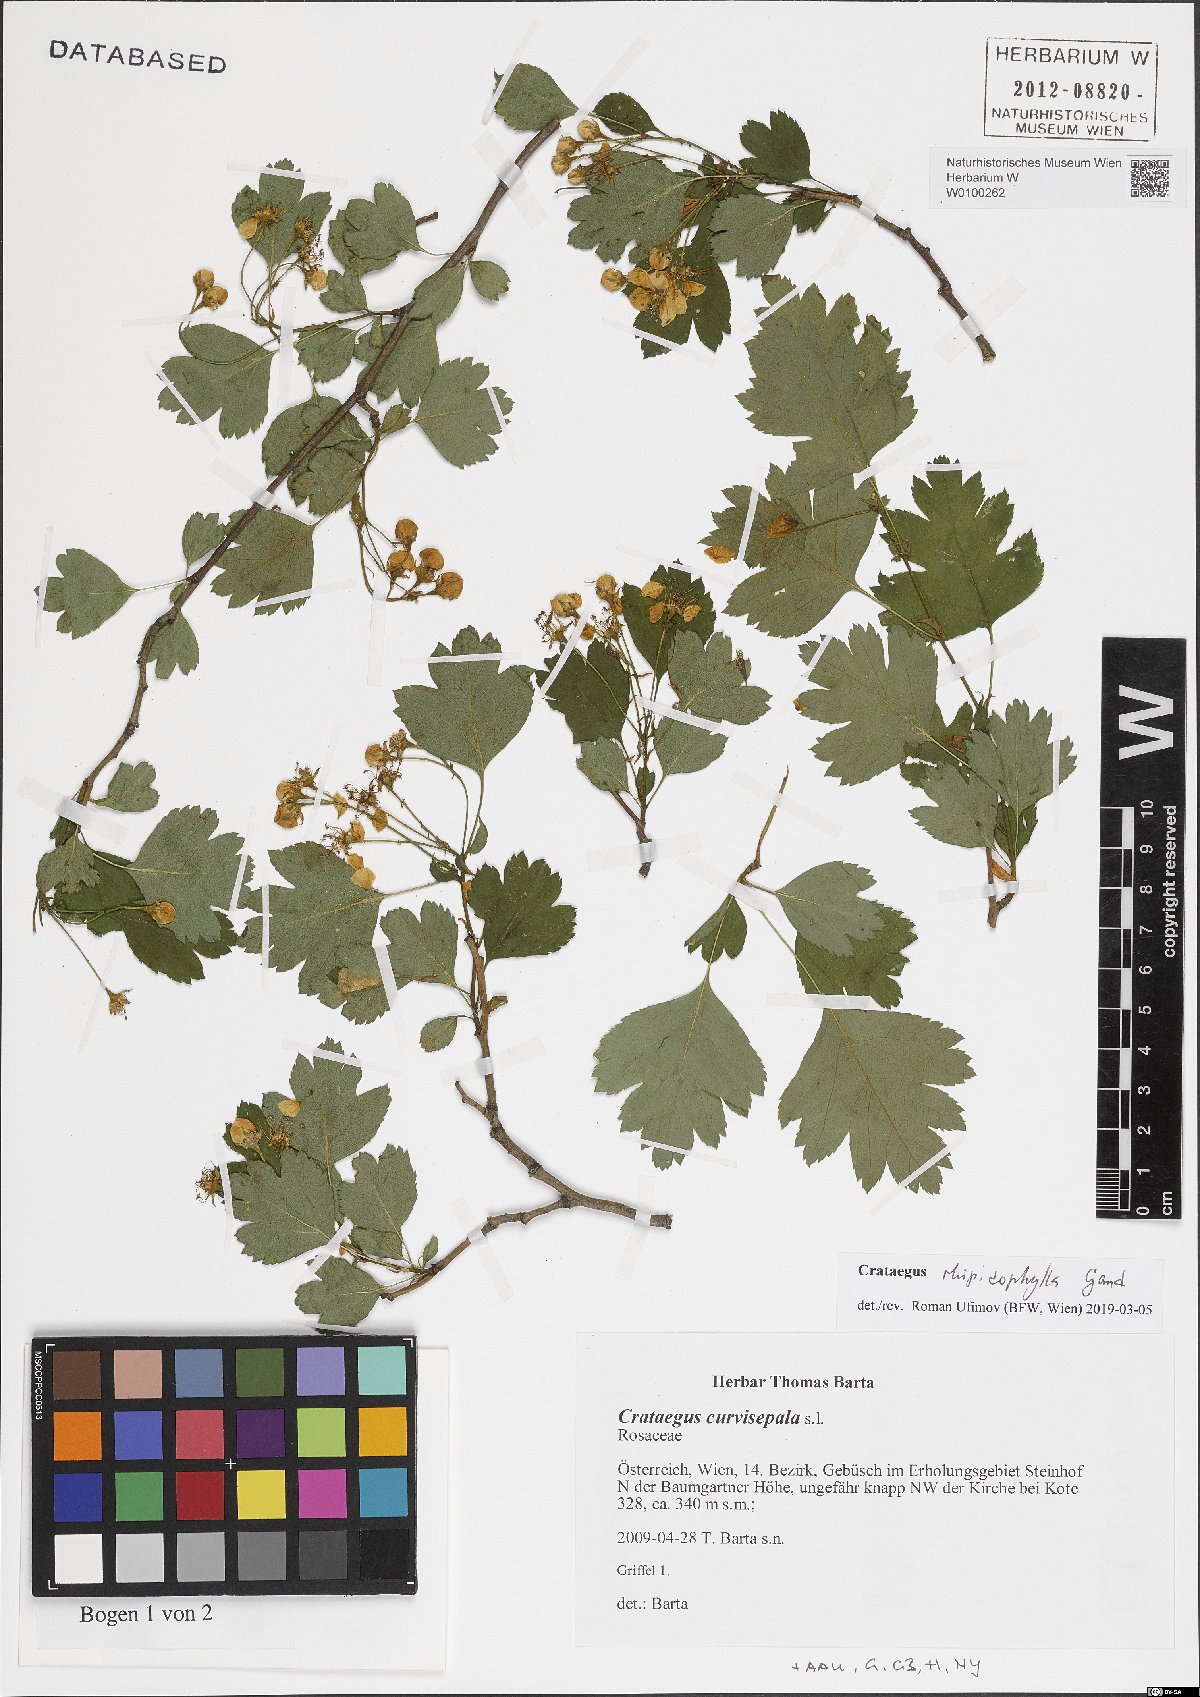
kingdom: Plantae
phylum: Tracheophyta
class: Magnoliopsida
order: Rosales
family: Rosaceae
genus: Crataegus
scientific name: Crataegus rhipidophylla
